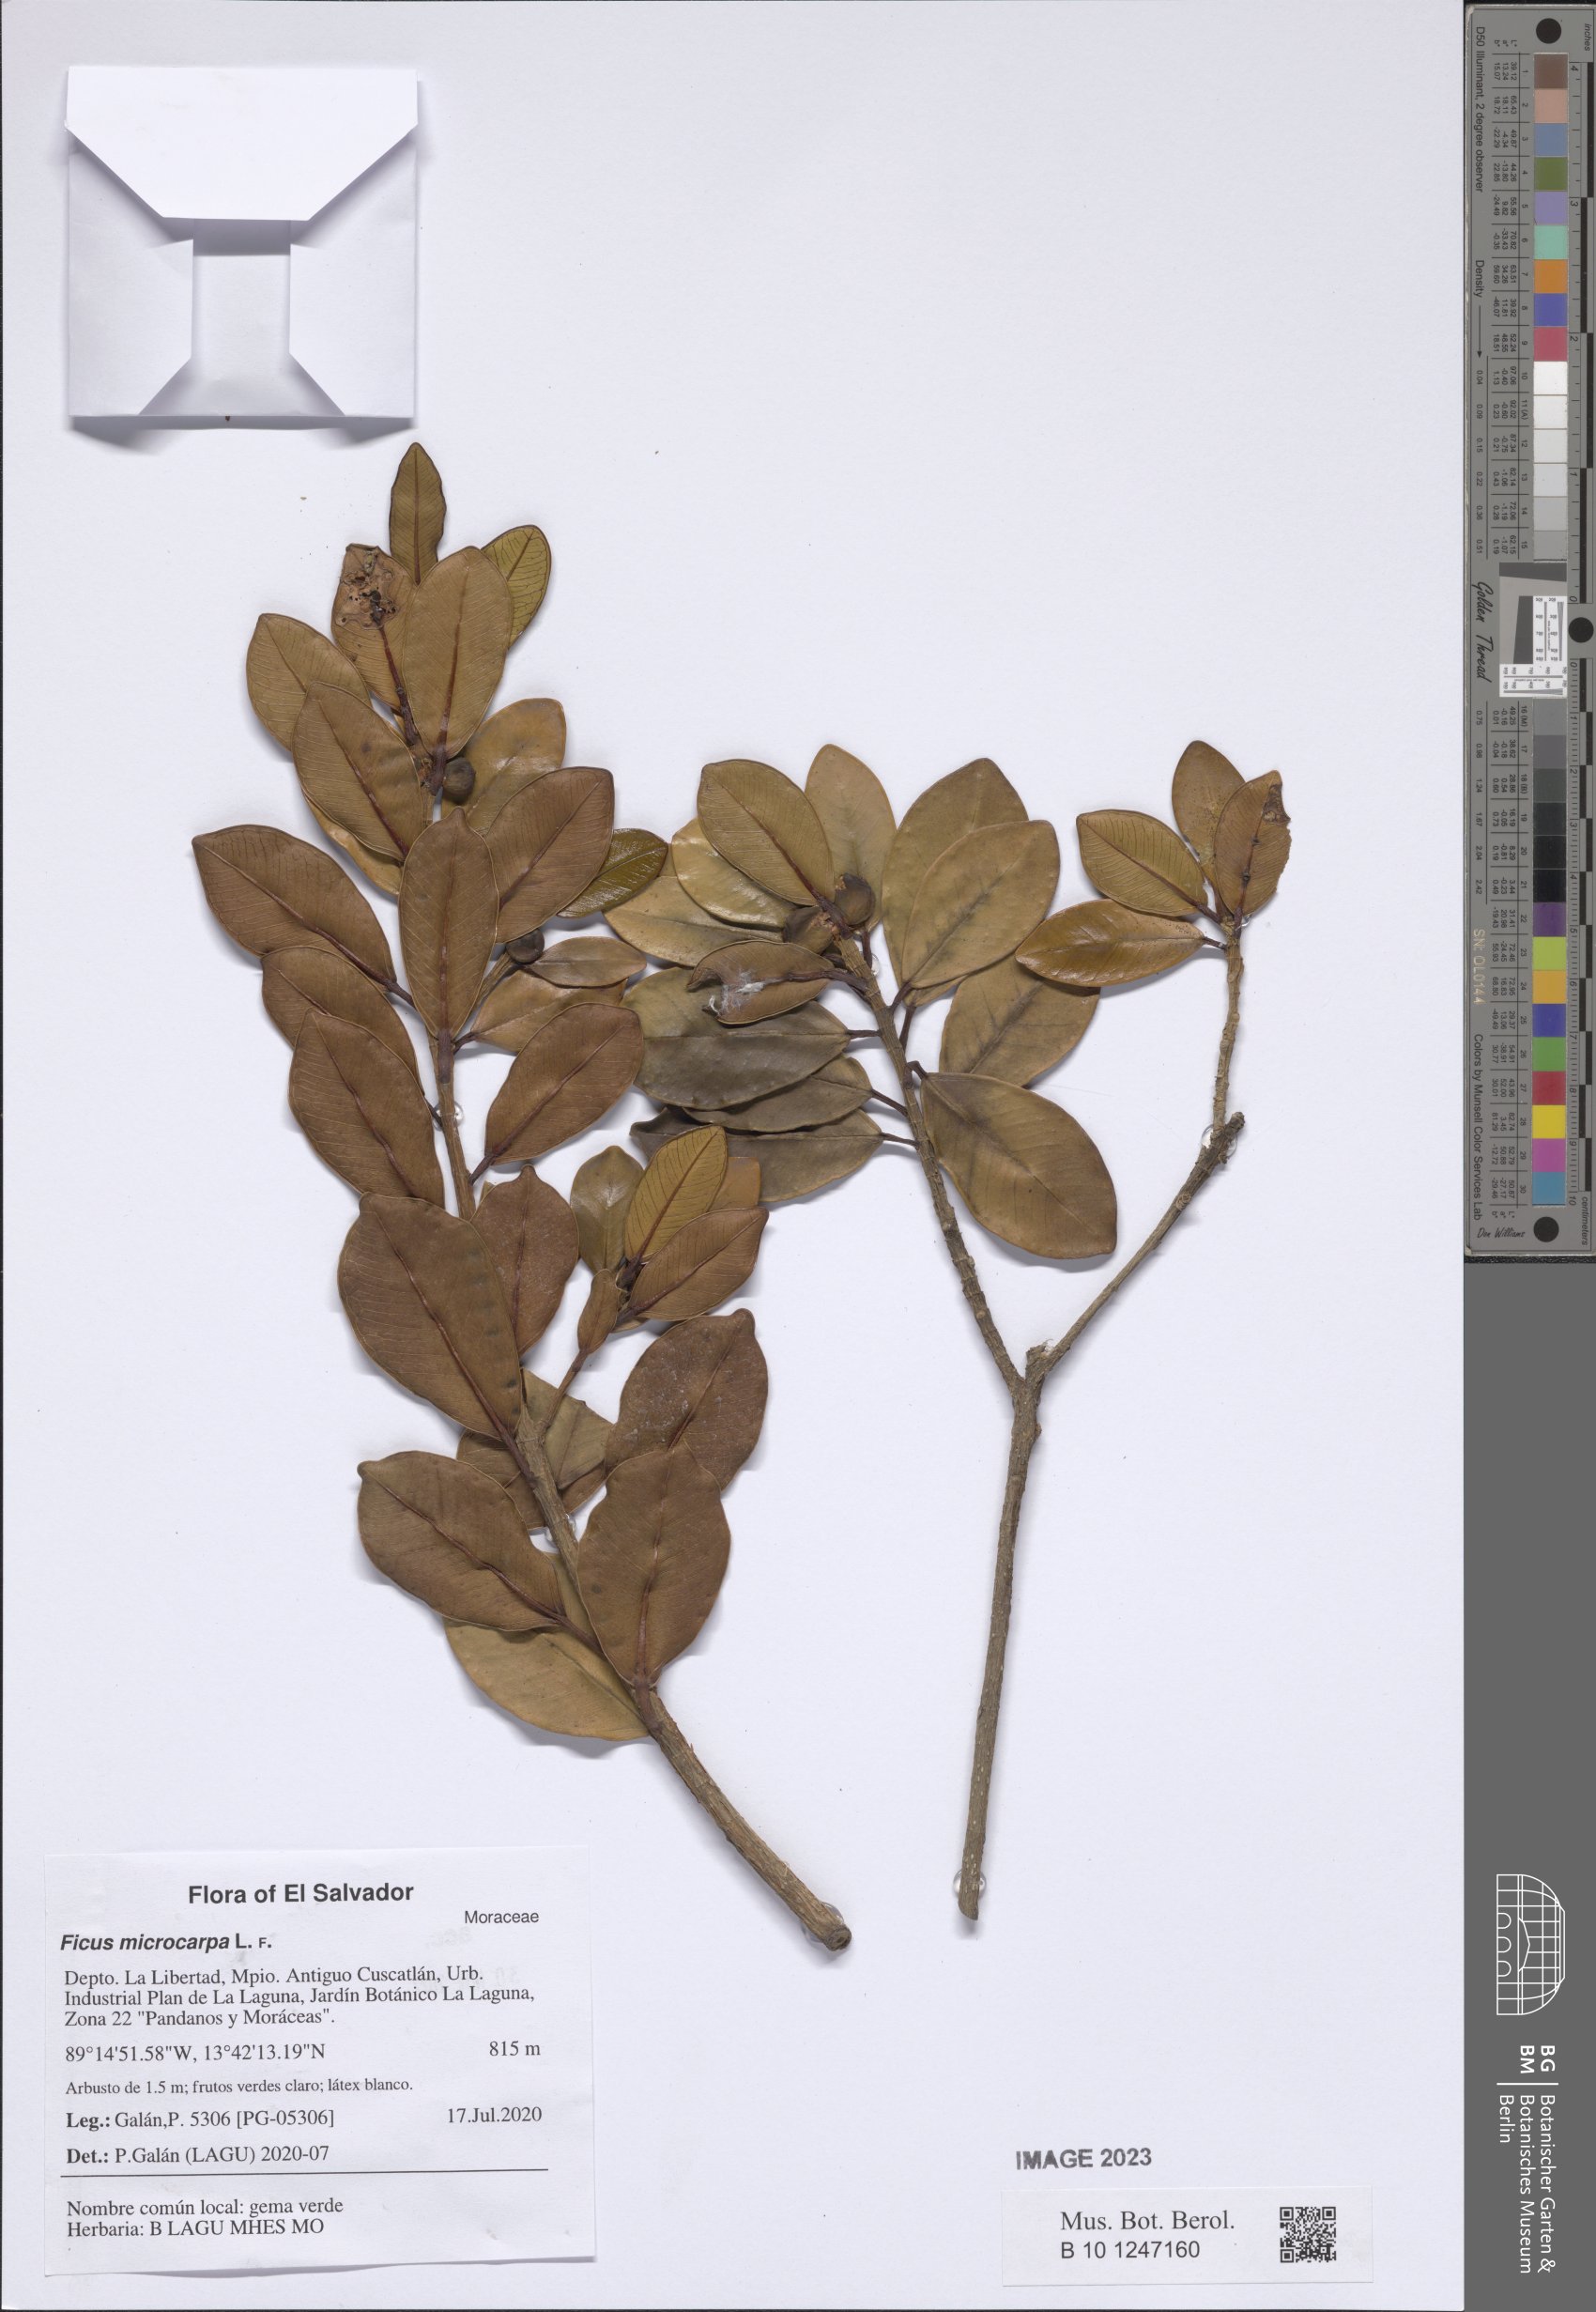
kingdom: Plantae
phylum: Tracheophyta
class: Magnoliopsida
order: Rosales
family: Moraceae
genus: Ficus
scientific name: Ficus microcarpa
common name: Chinese banyan
